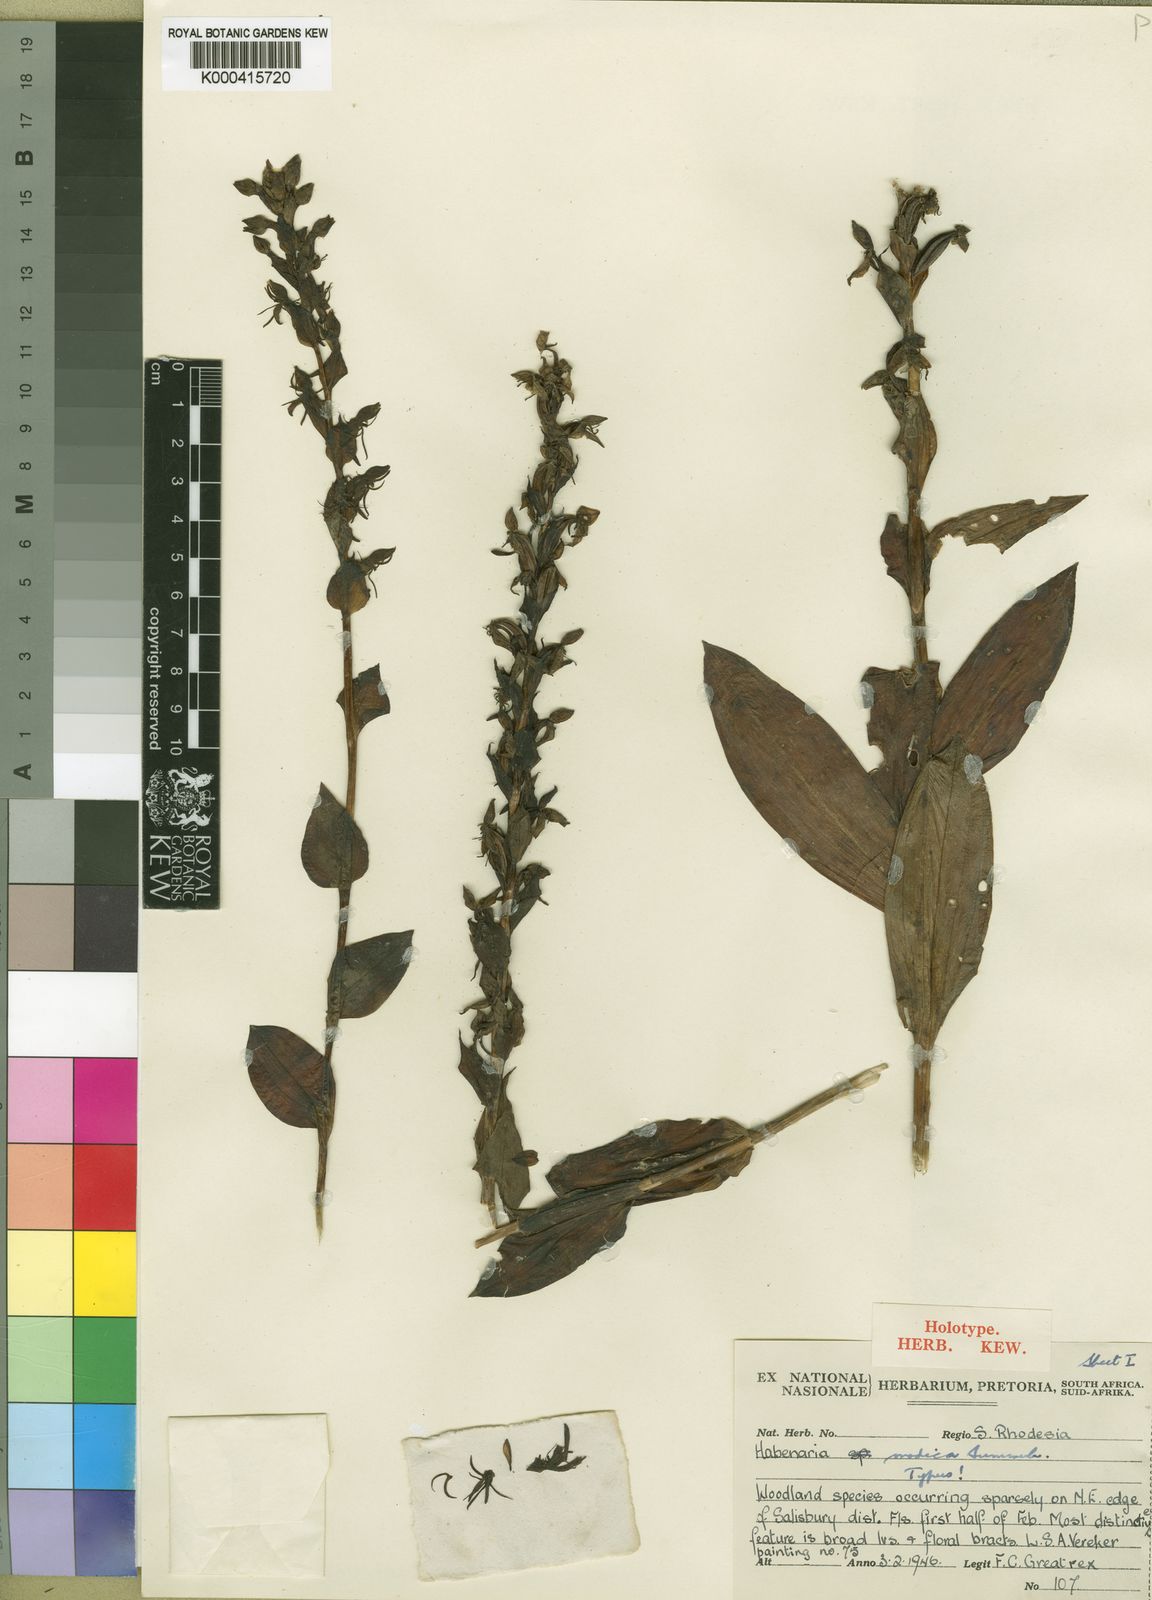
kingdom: Plantae
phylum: Tracheophyta
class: Liliopsida
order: Asparagales
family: Orchidaceae
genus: Habenaria
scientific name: Habenaria uhehensis
